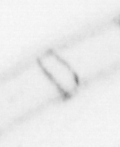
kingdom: Animalia
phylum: Chordata
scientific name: Chordata
